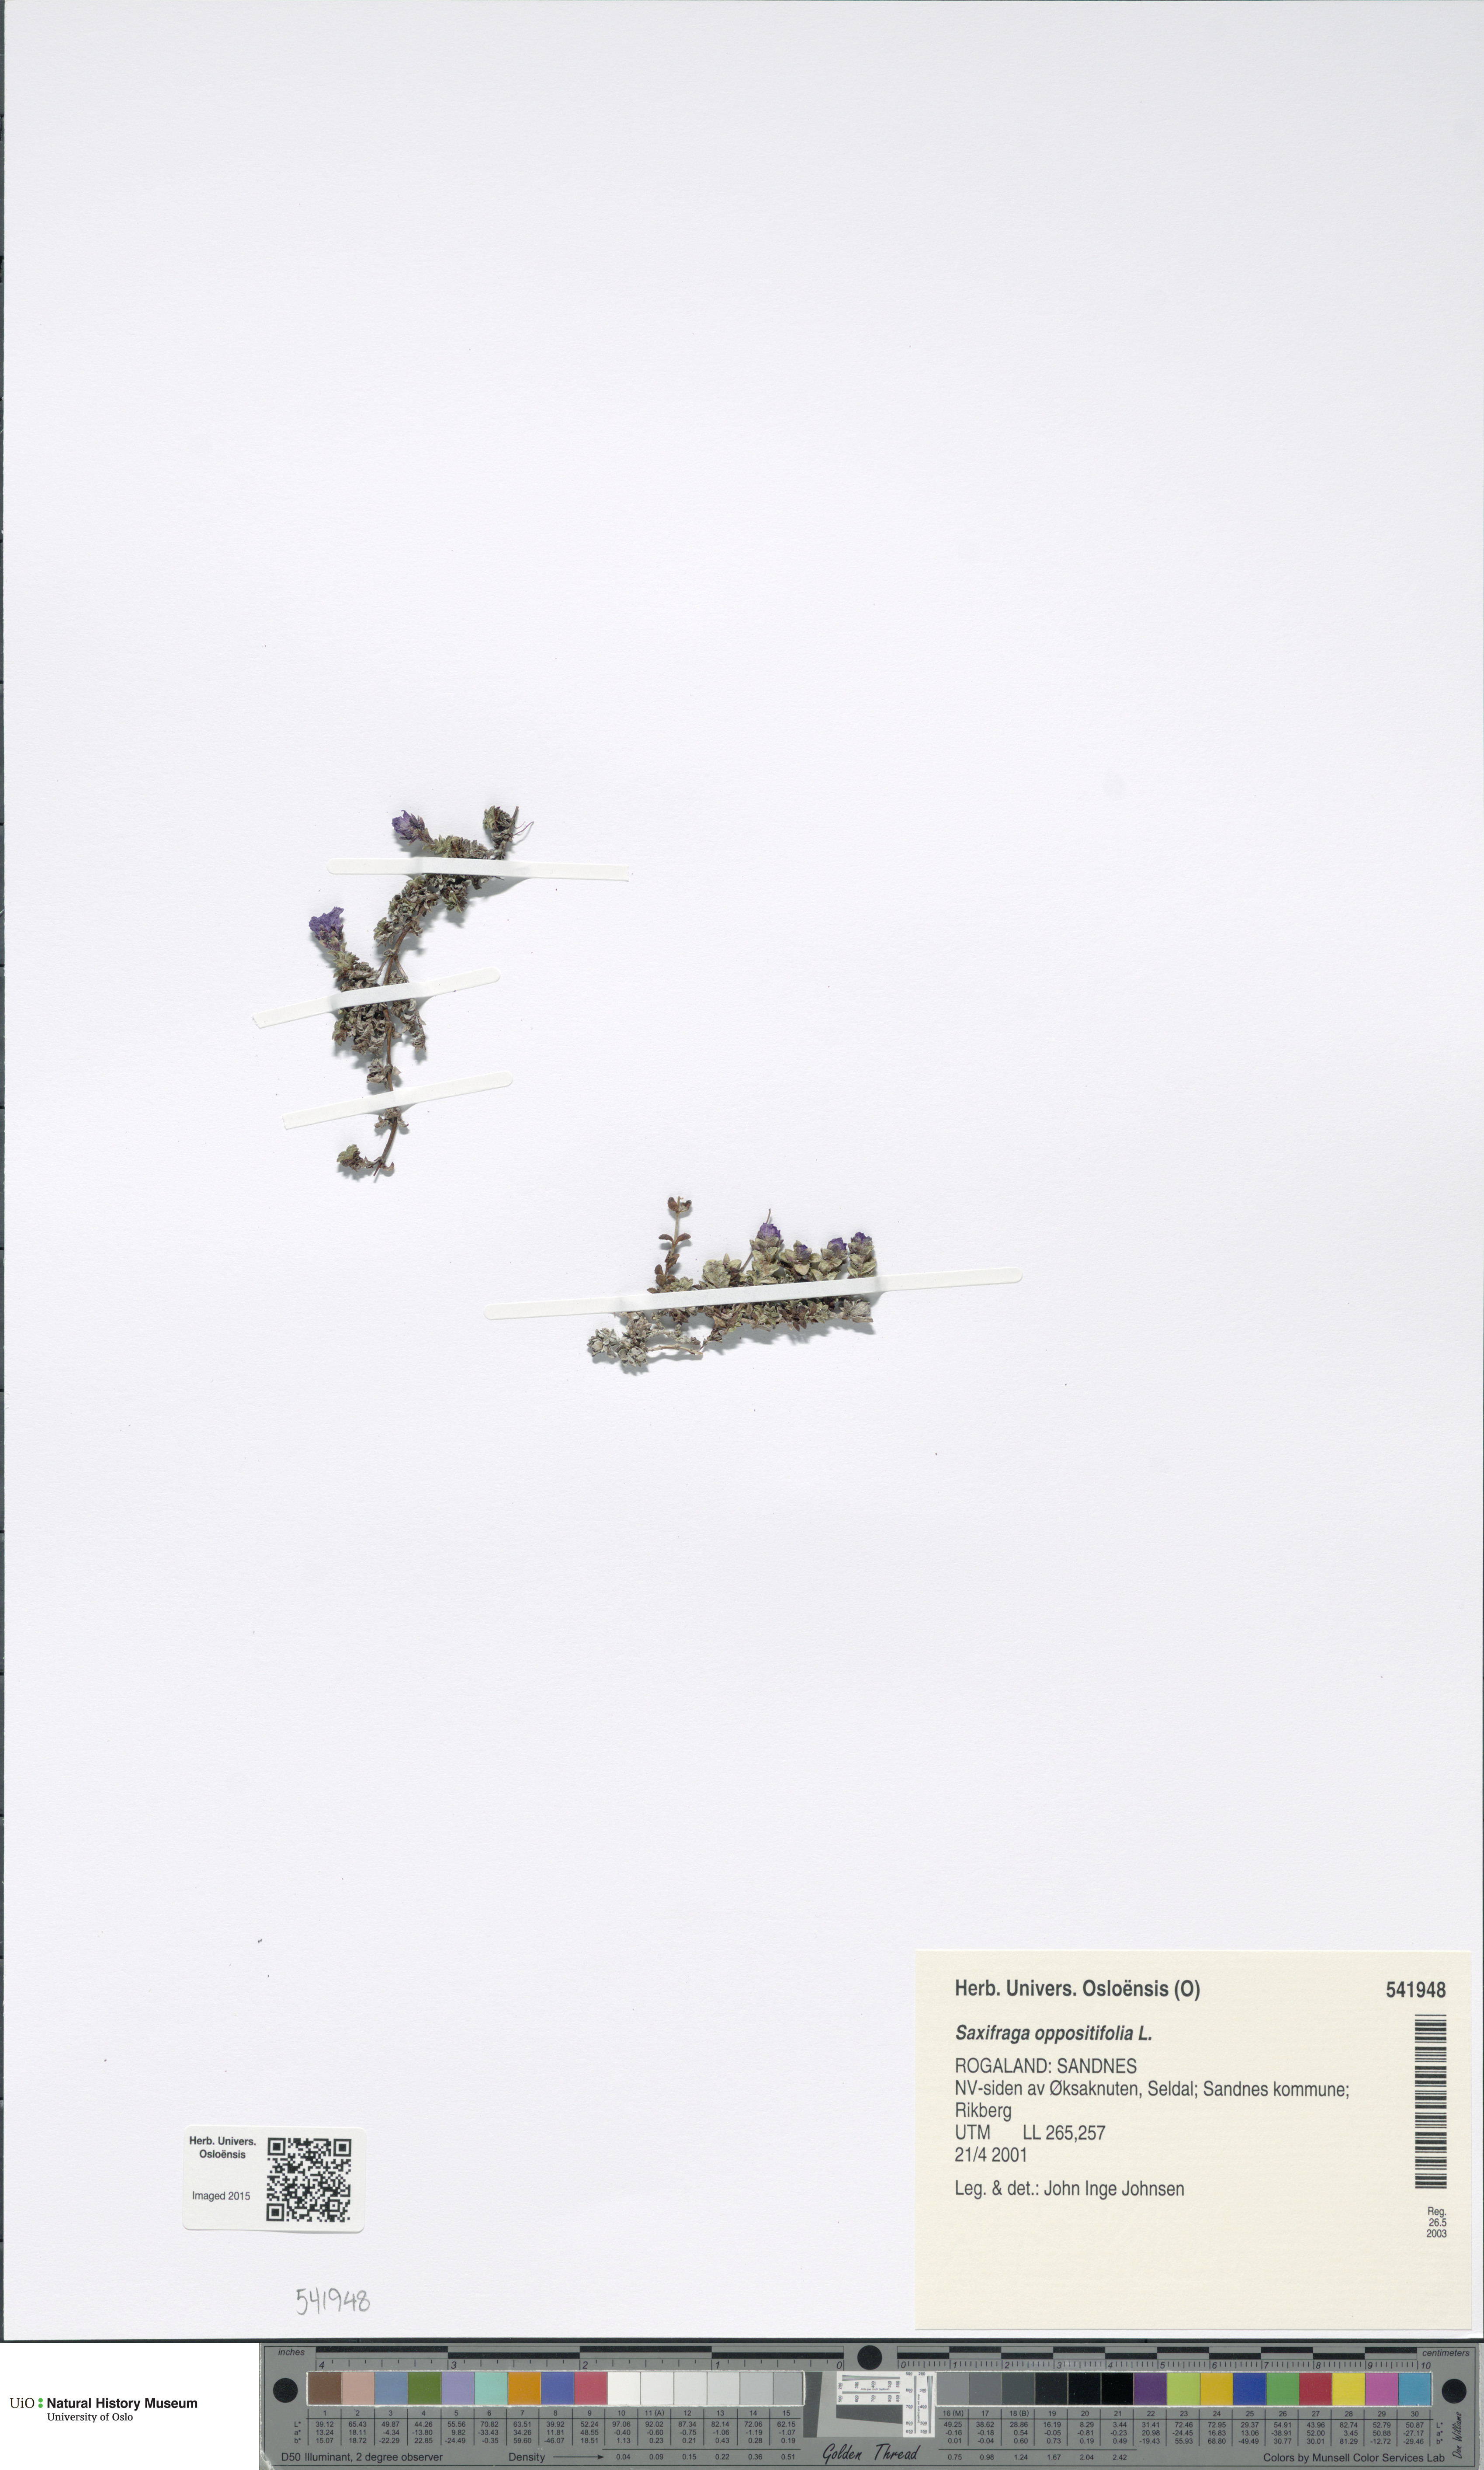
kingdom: Plantae
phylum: Tracheophyta
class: Magnoliopsida
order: Saxifragales
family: Saxifragaceae
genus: Saxifraga
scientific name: Saxifraga oppositifolia
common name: Purple saxifrage
